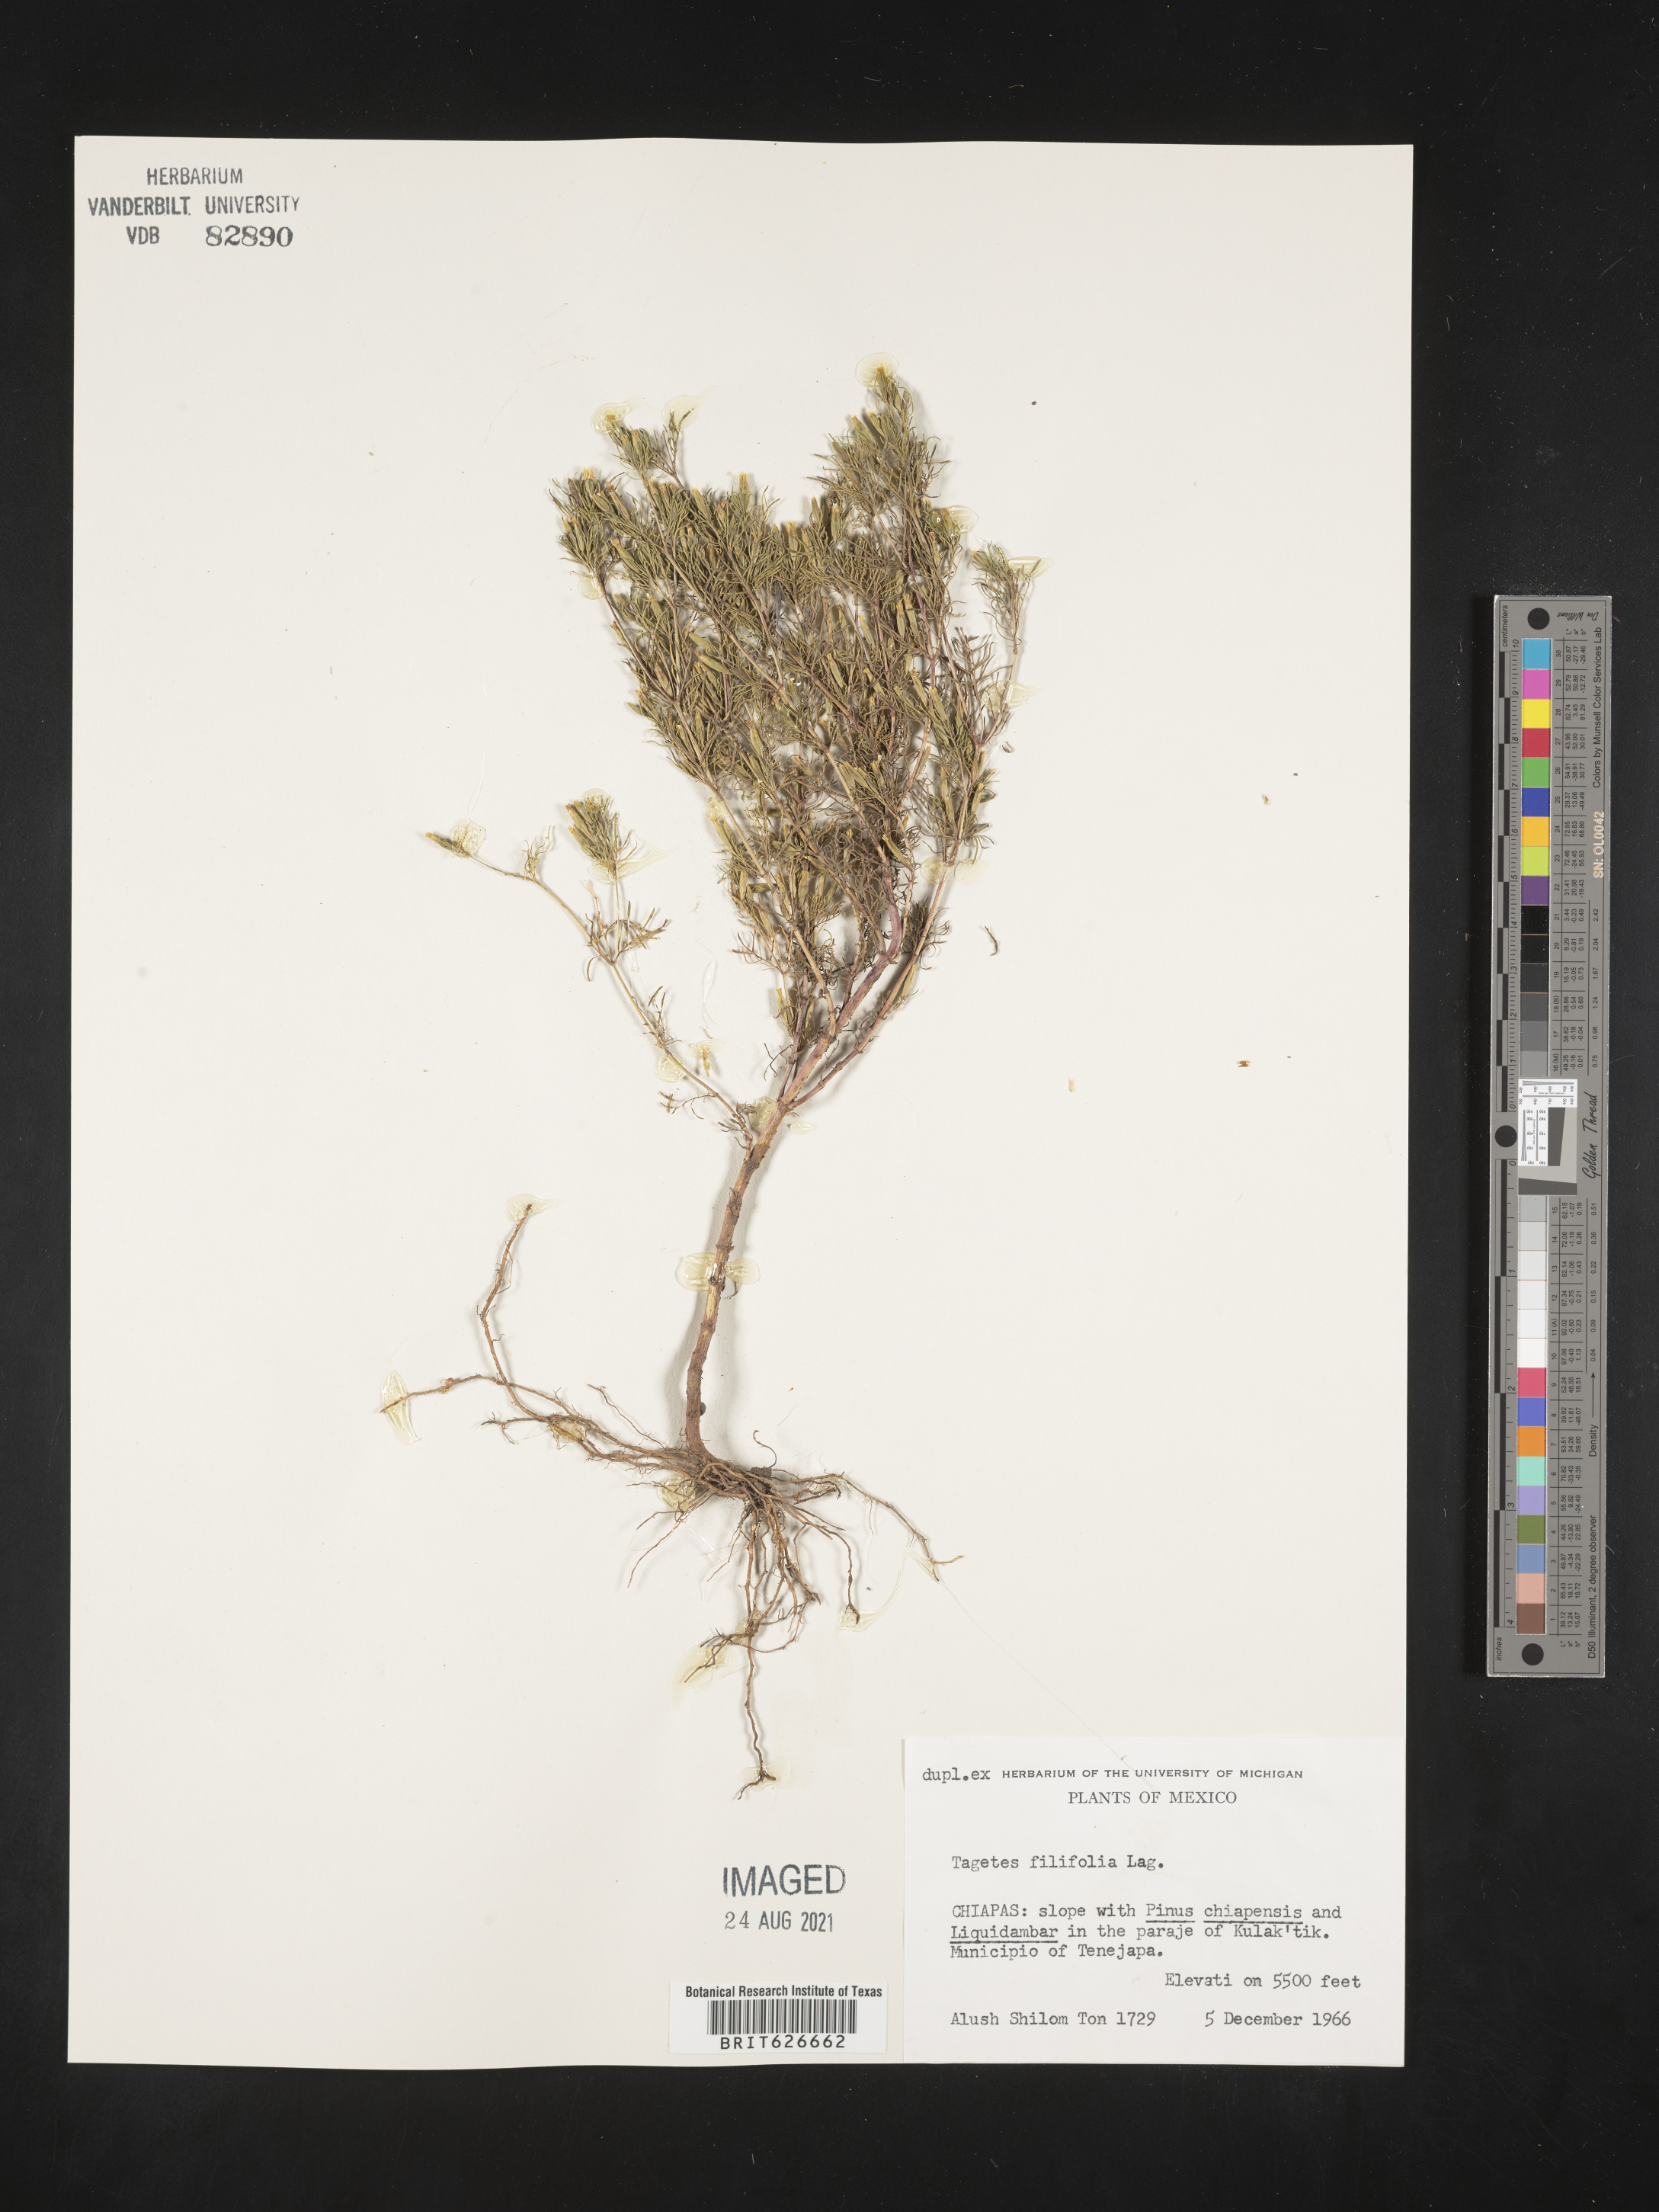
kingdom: Plantae
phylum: Tracheophyta
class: Magnoliopsida
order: Asterales
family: Asteraceae
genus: Tagetes
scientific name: Tagetes
